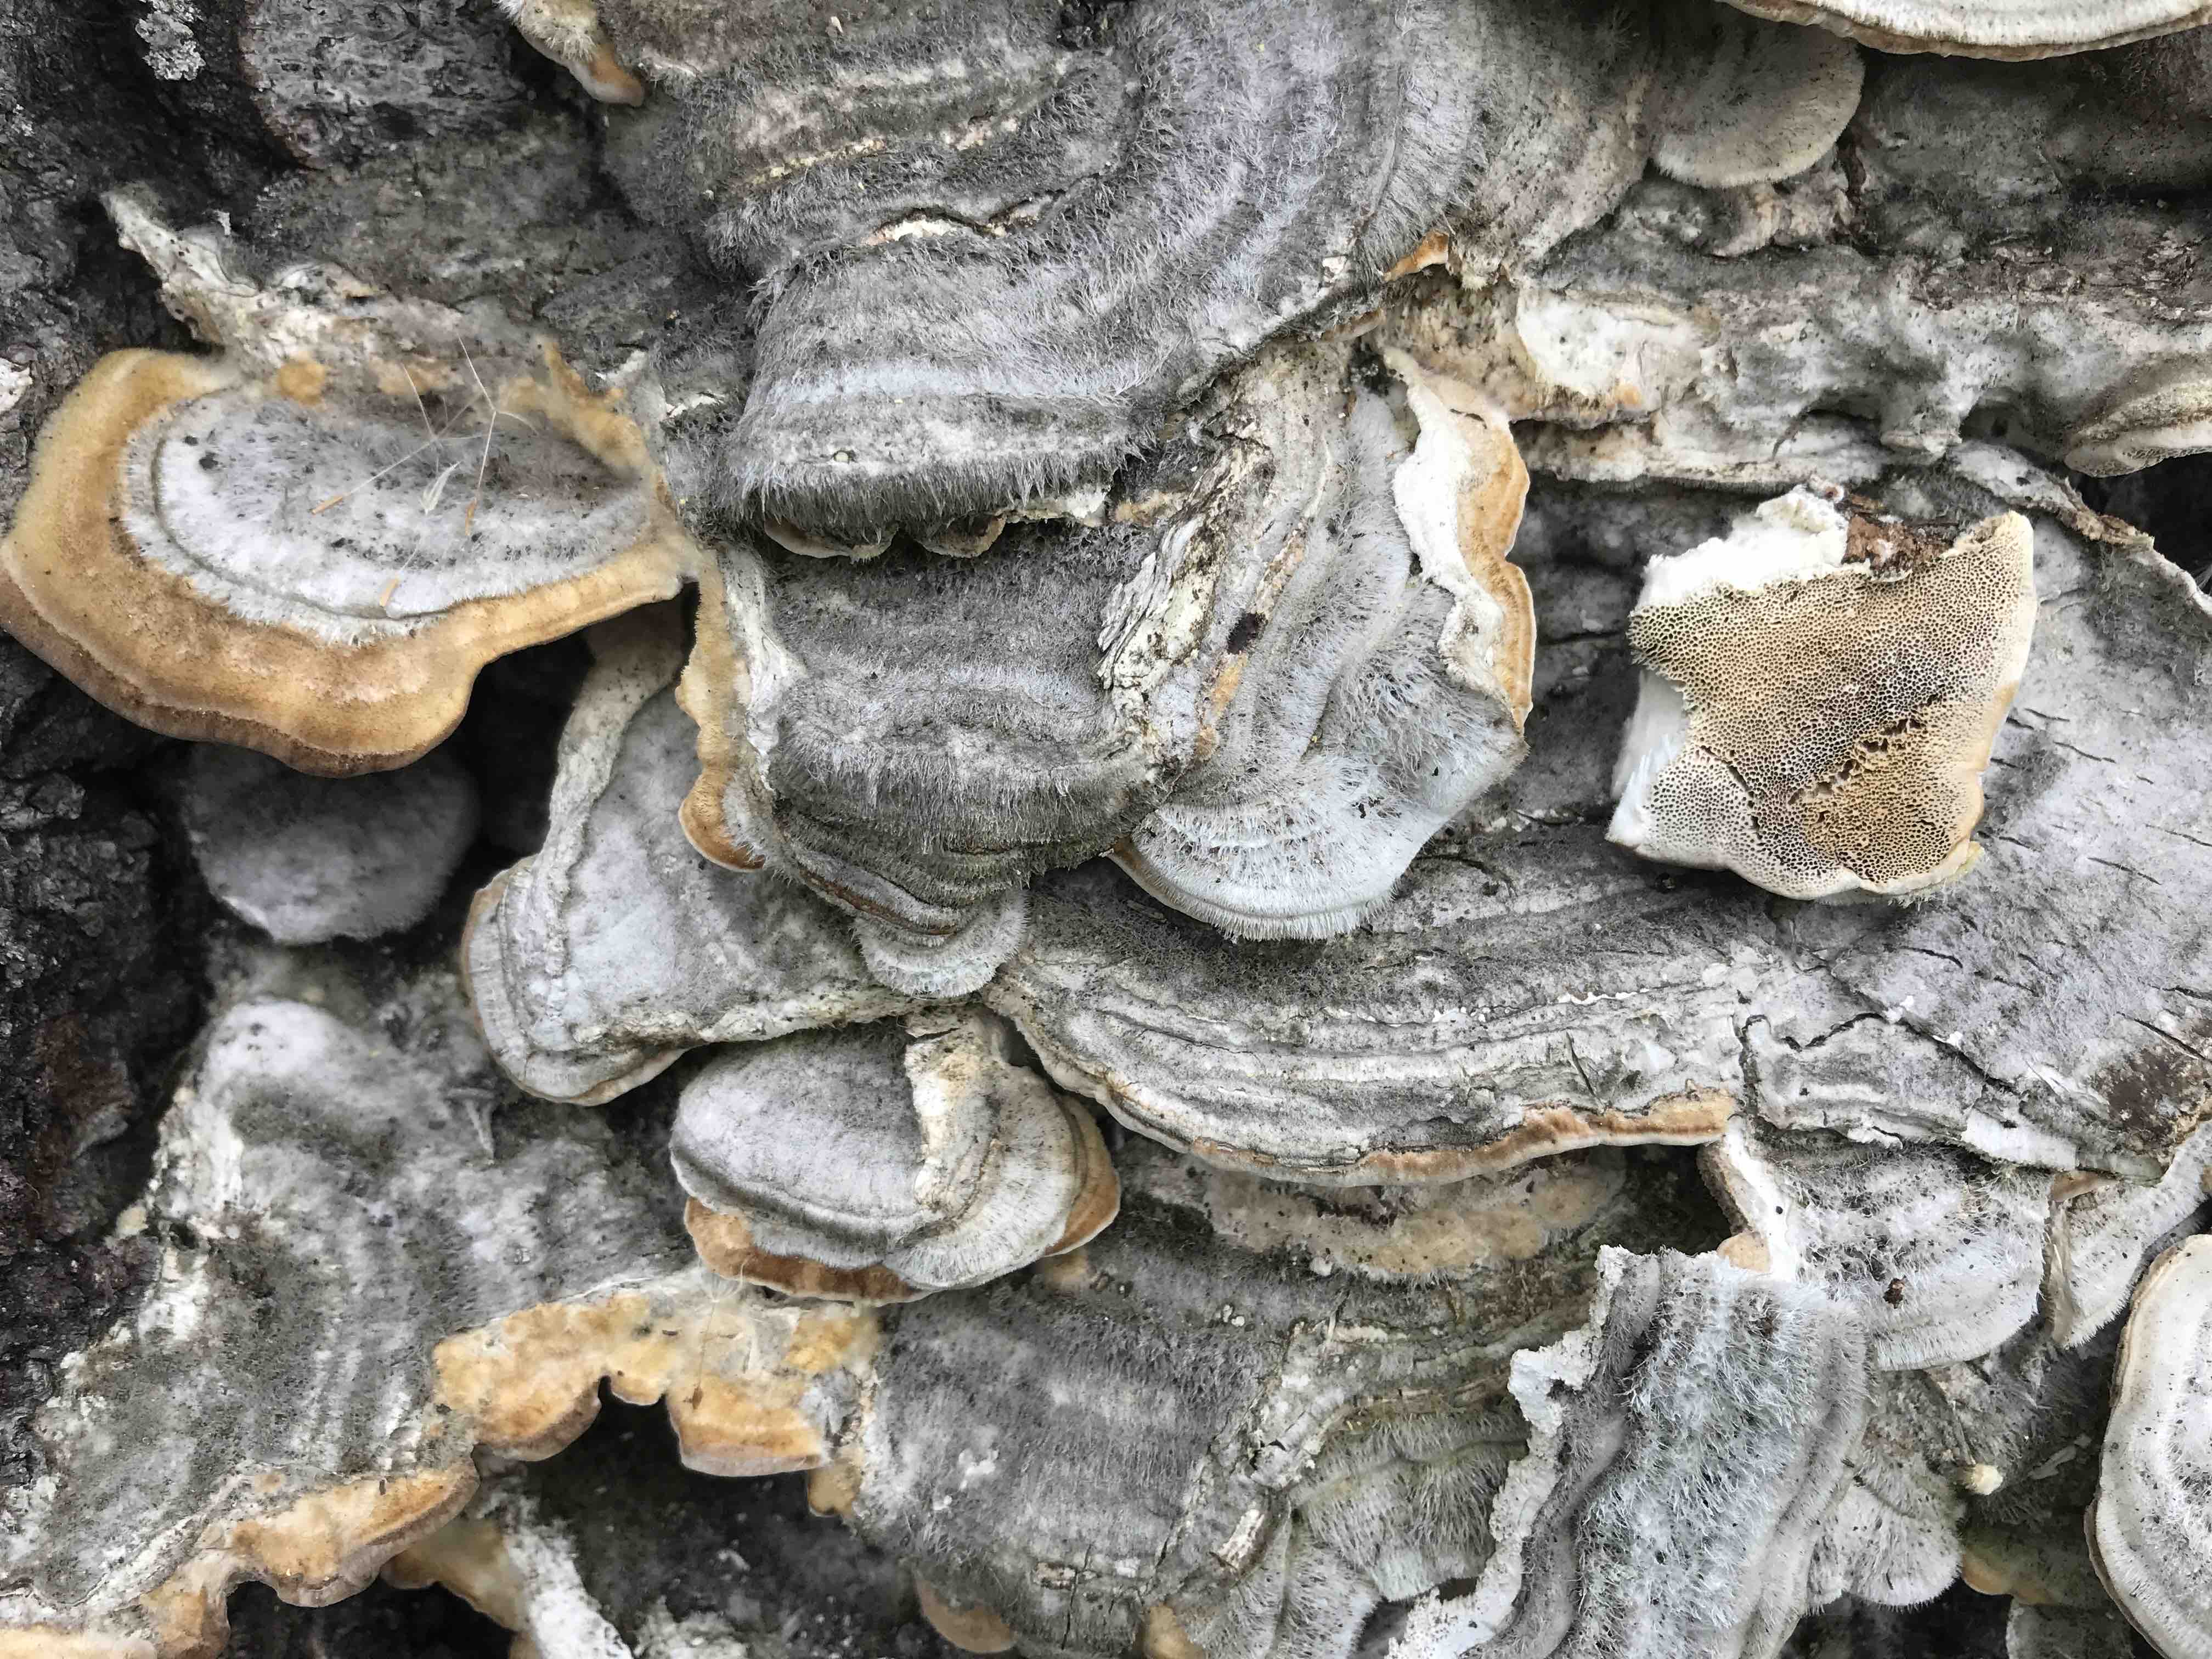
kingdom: Fungi
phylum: Basidiomycota
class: Agaricomycetes
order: Polyporales
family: Polyporaceae
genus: Trametes
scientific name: Trametes hirsuta
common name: håret læderporesvamp
